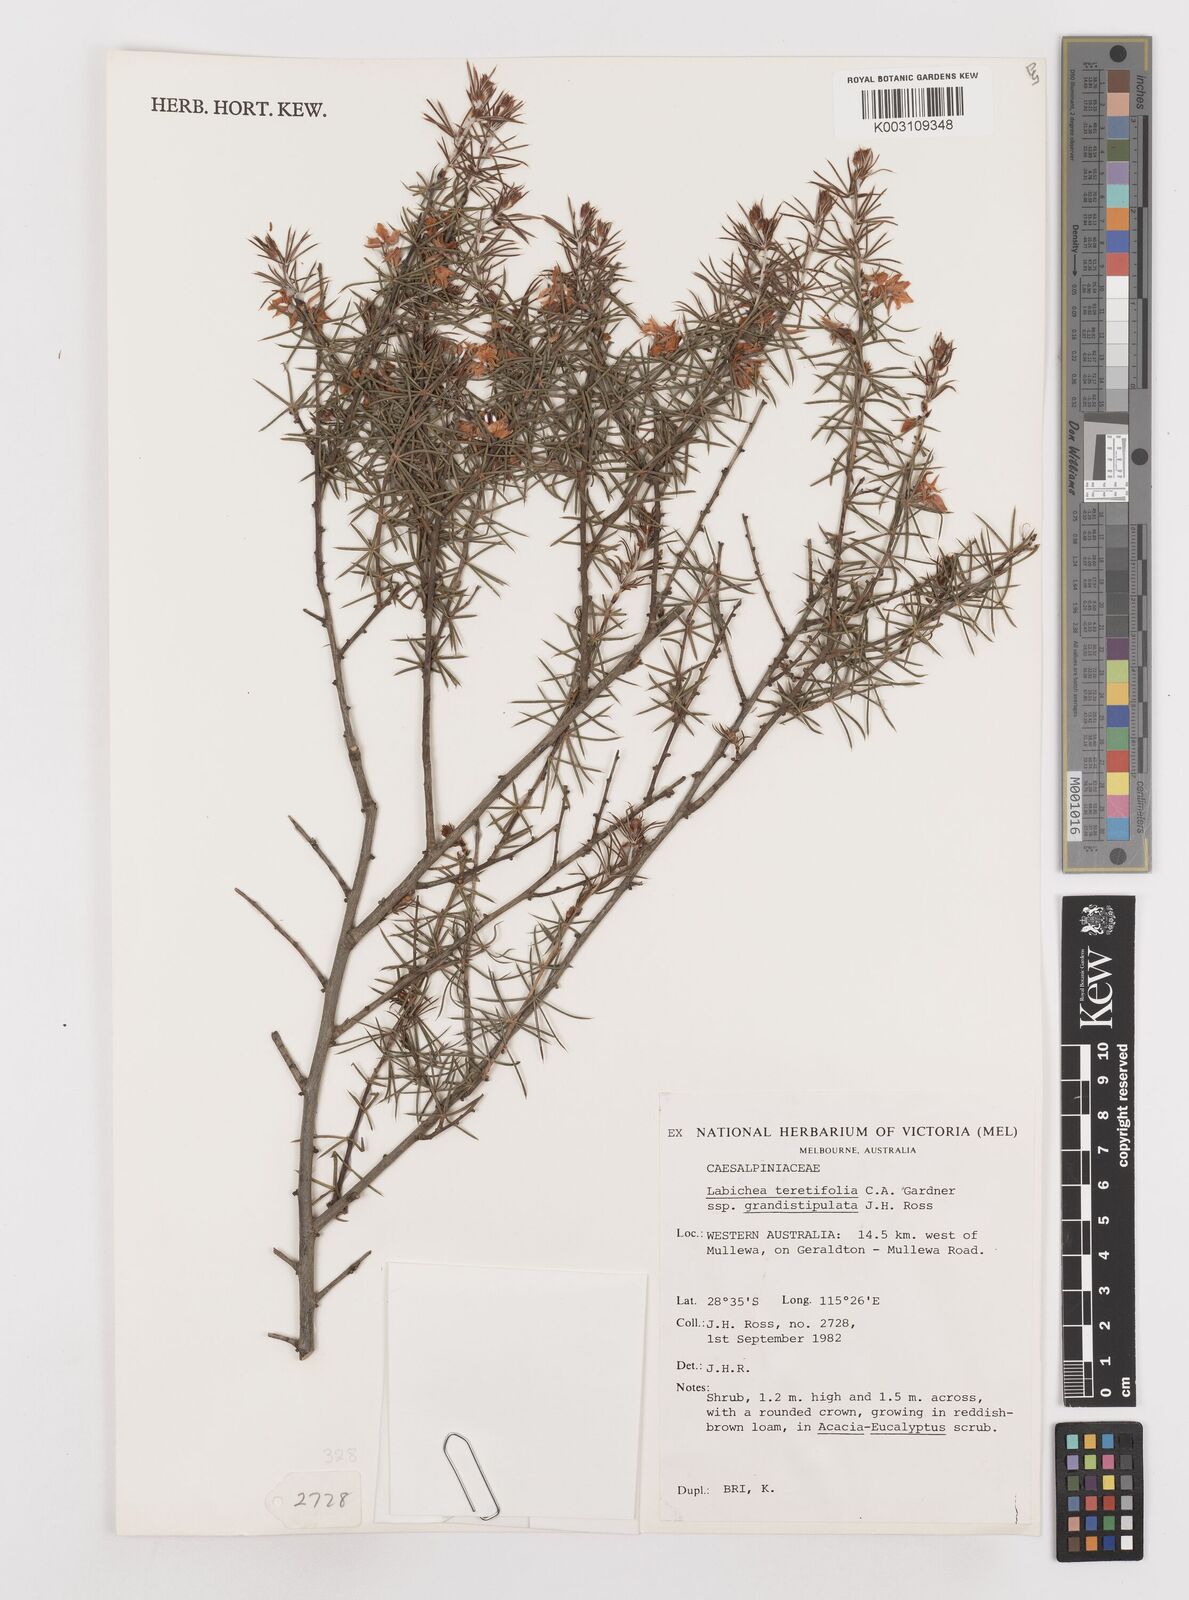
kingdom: Plantae
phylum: Tracheophyta
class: Magnoliopsida
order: Fabales
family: Fabaceae
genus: Labichea
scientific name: Labichea teretifolia
